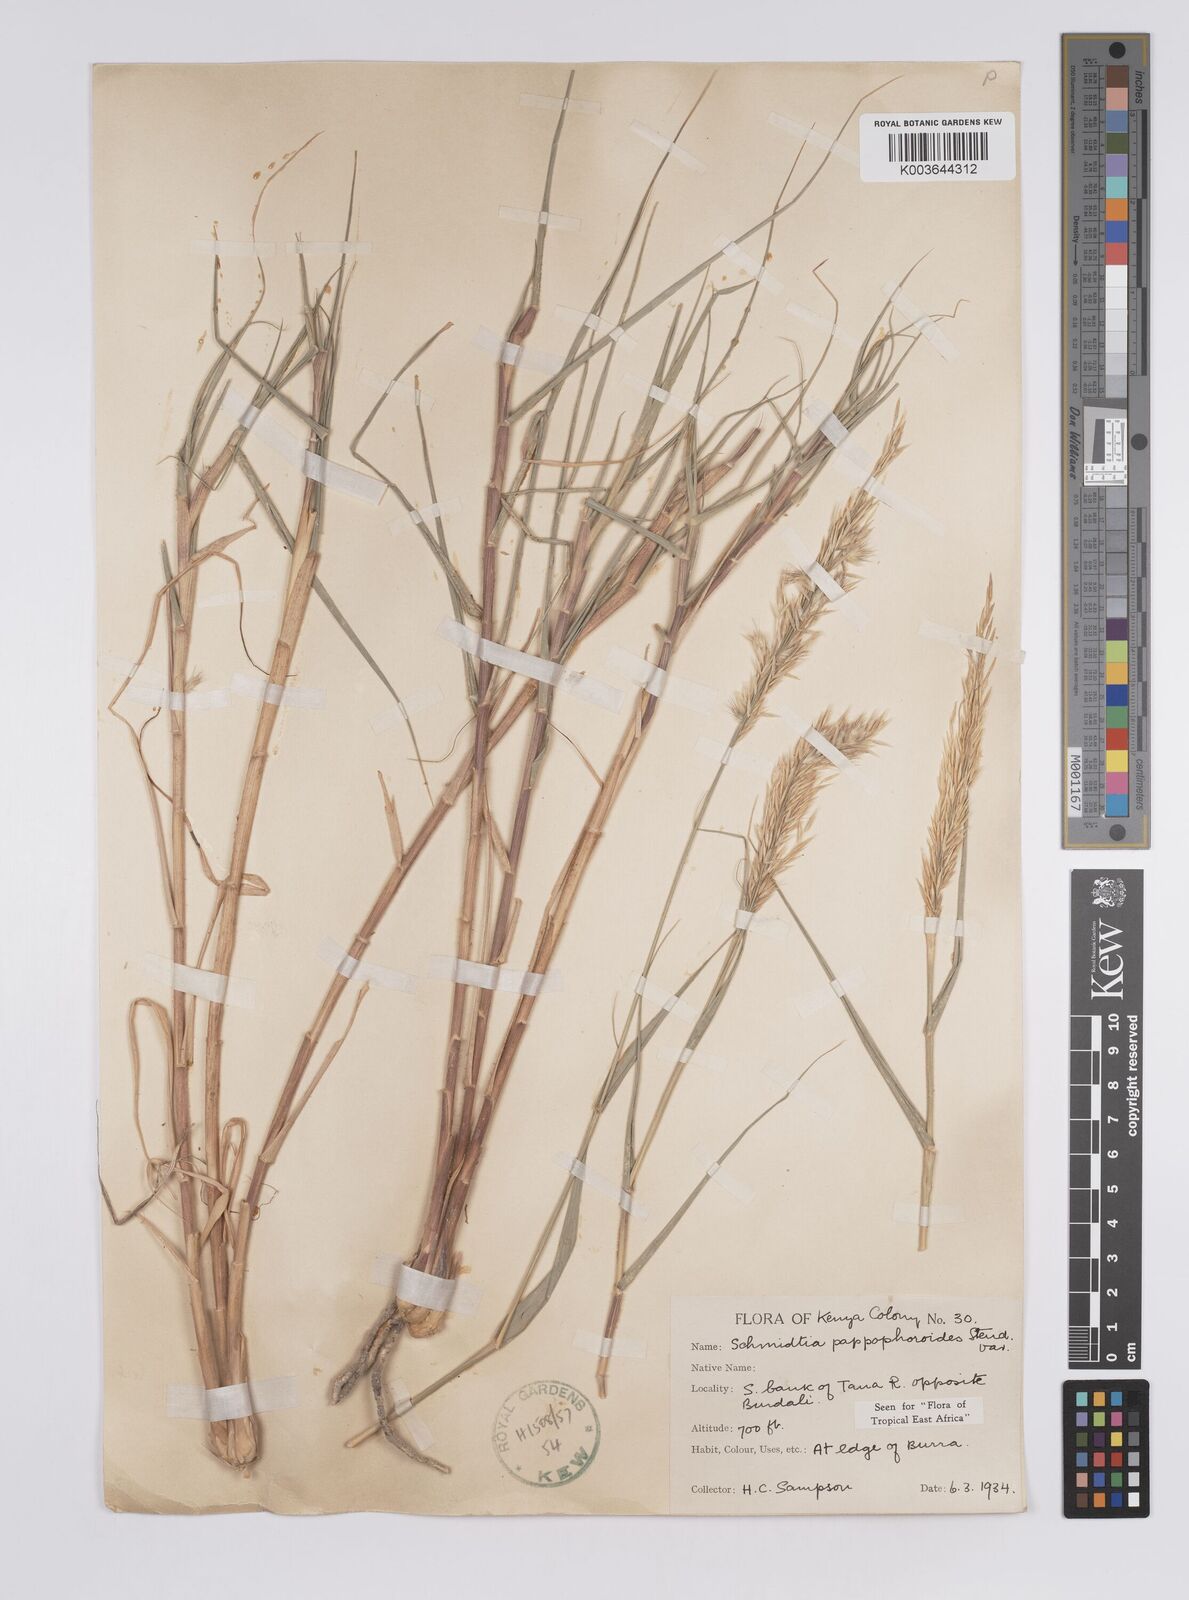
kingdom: Plantae
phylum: Tracheophyta
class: Liliopsida
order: Poales
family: Poaceae
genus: Schmidtia
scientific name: Schmidtia pappophoroides
